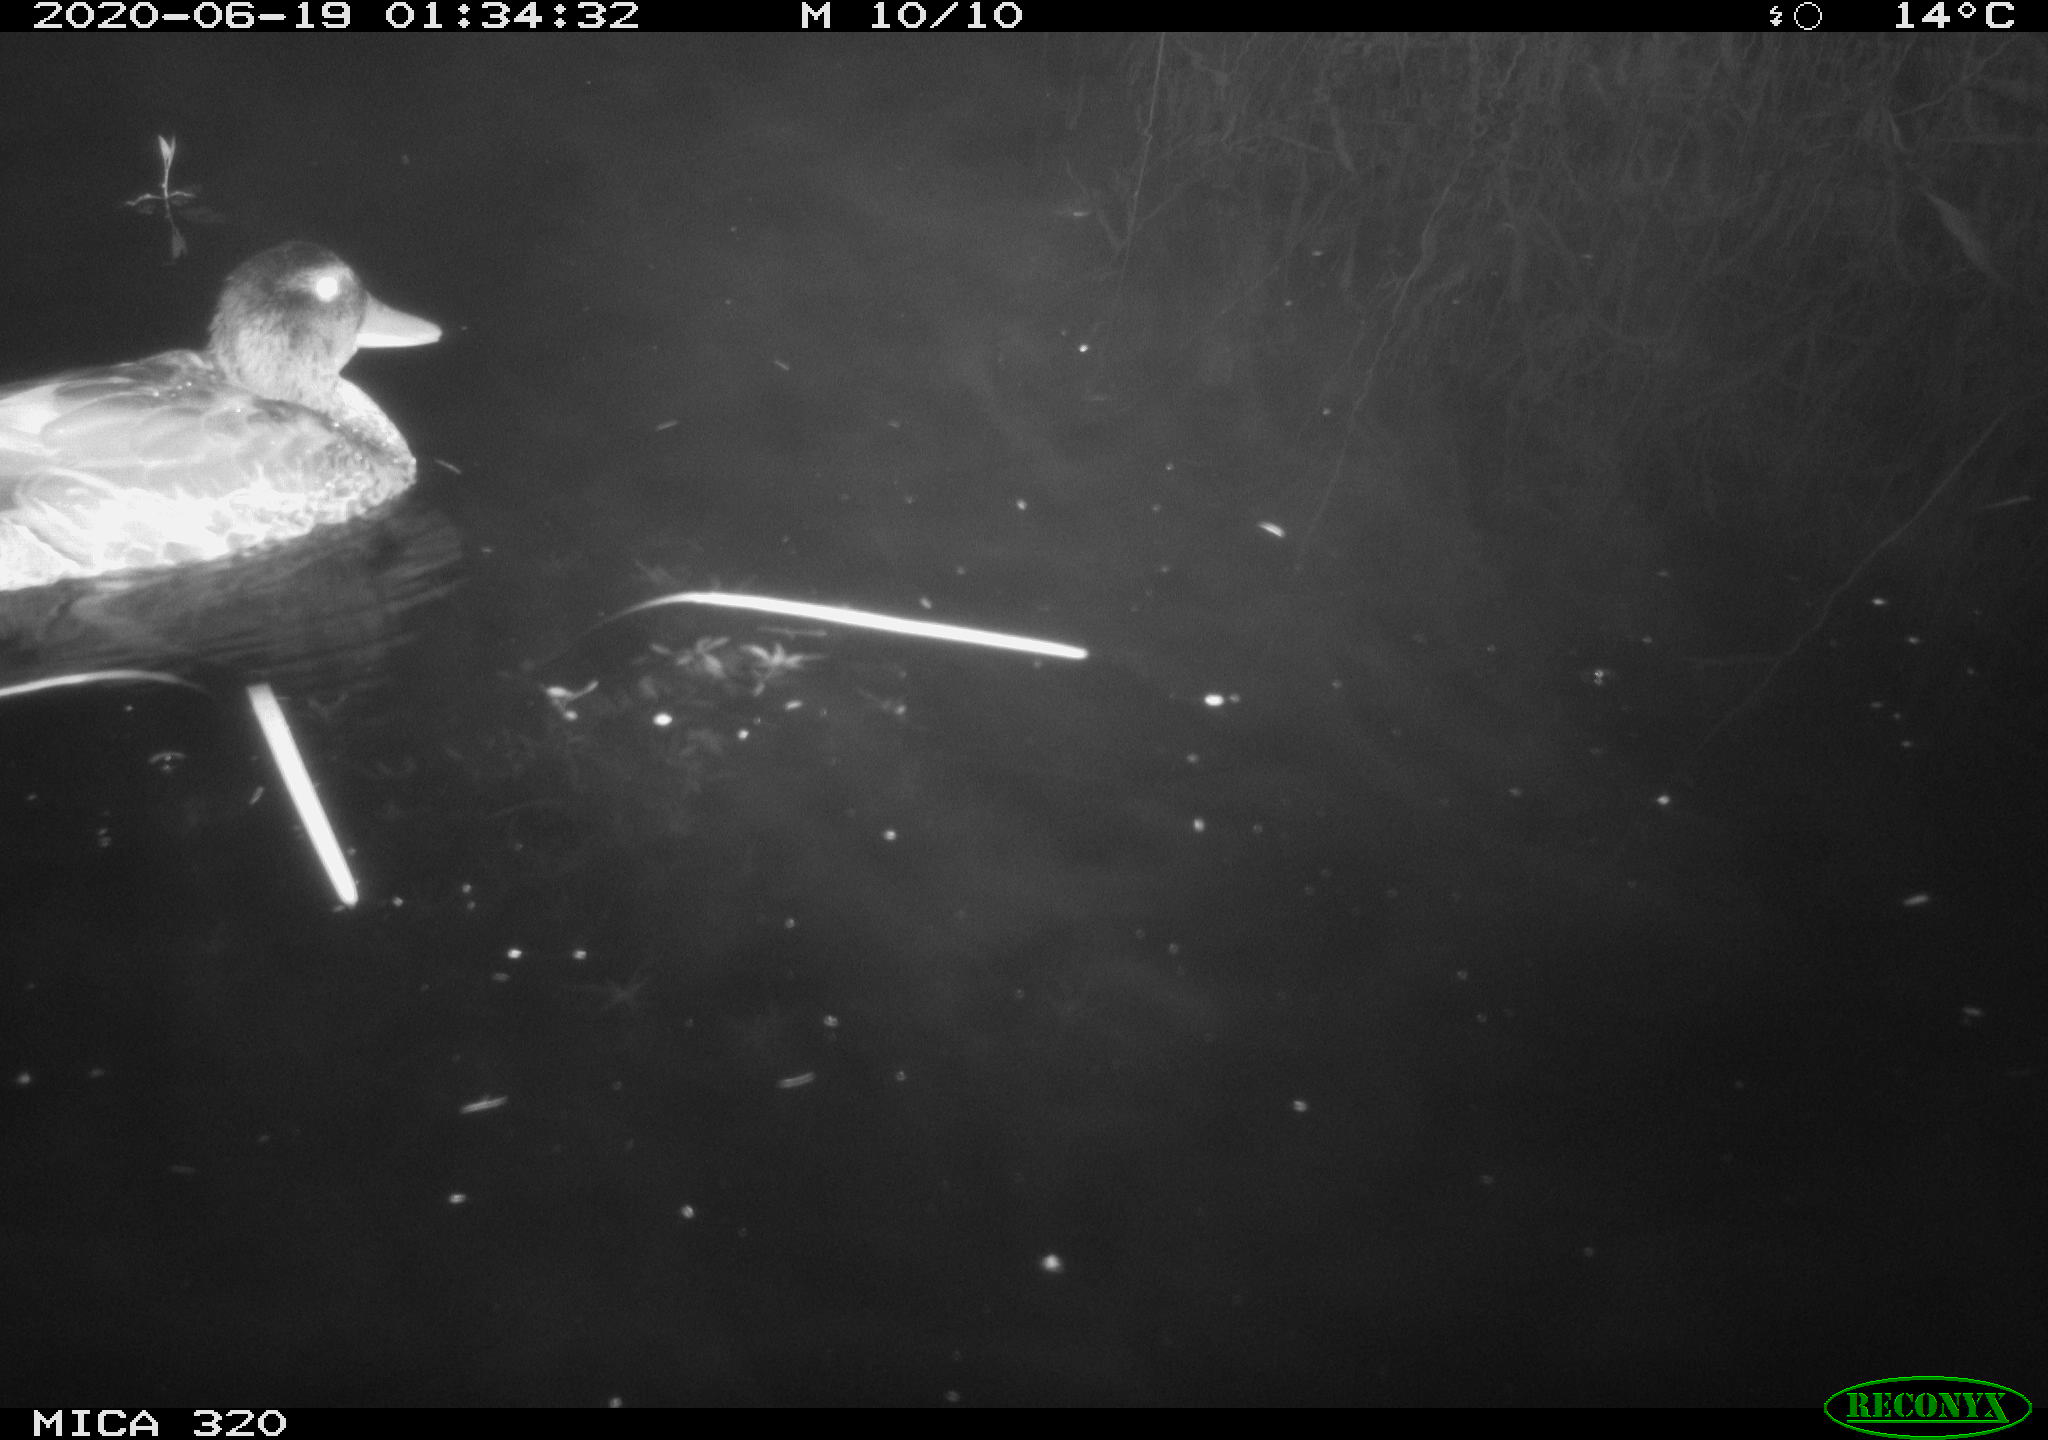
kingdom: Animalia
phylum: Chordata
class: Aves
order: Anseriformes
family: Anatidae
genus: Anas
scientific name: Anas platyrhynchos
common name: Mallard
